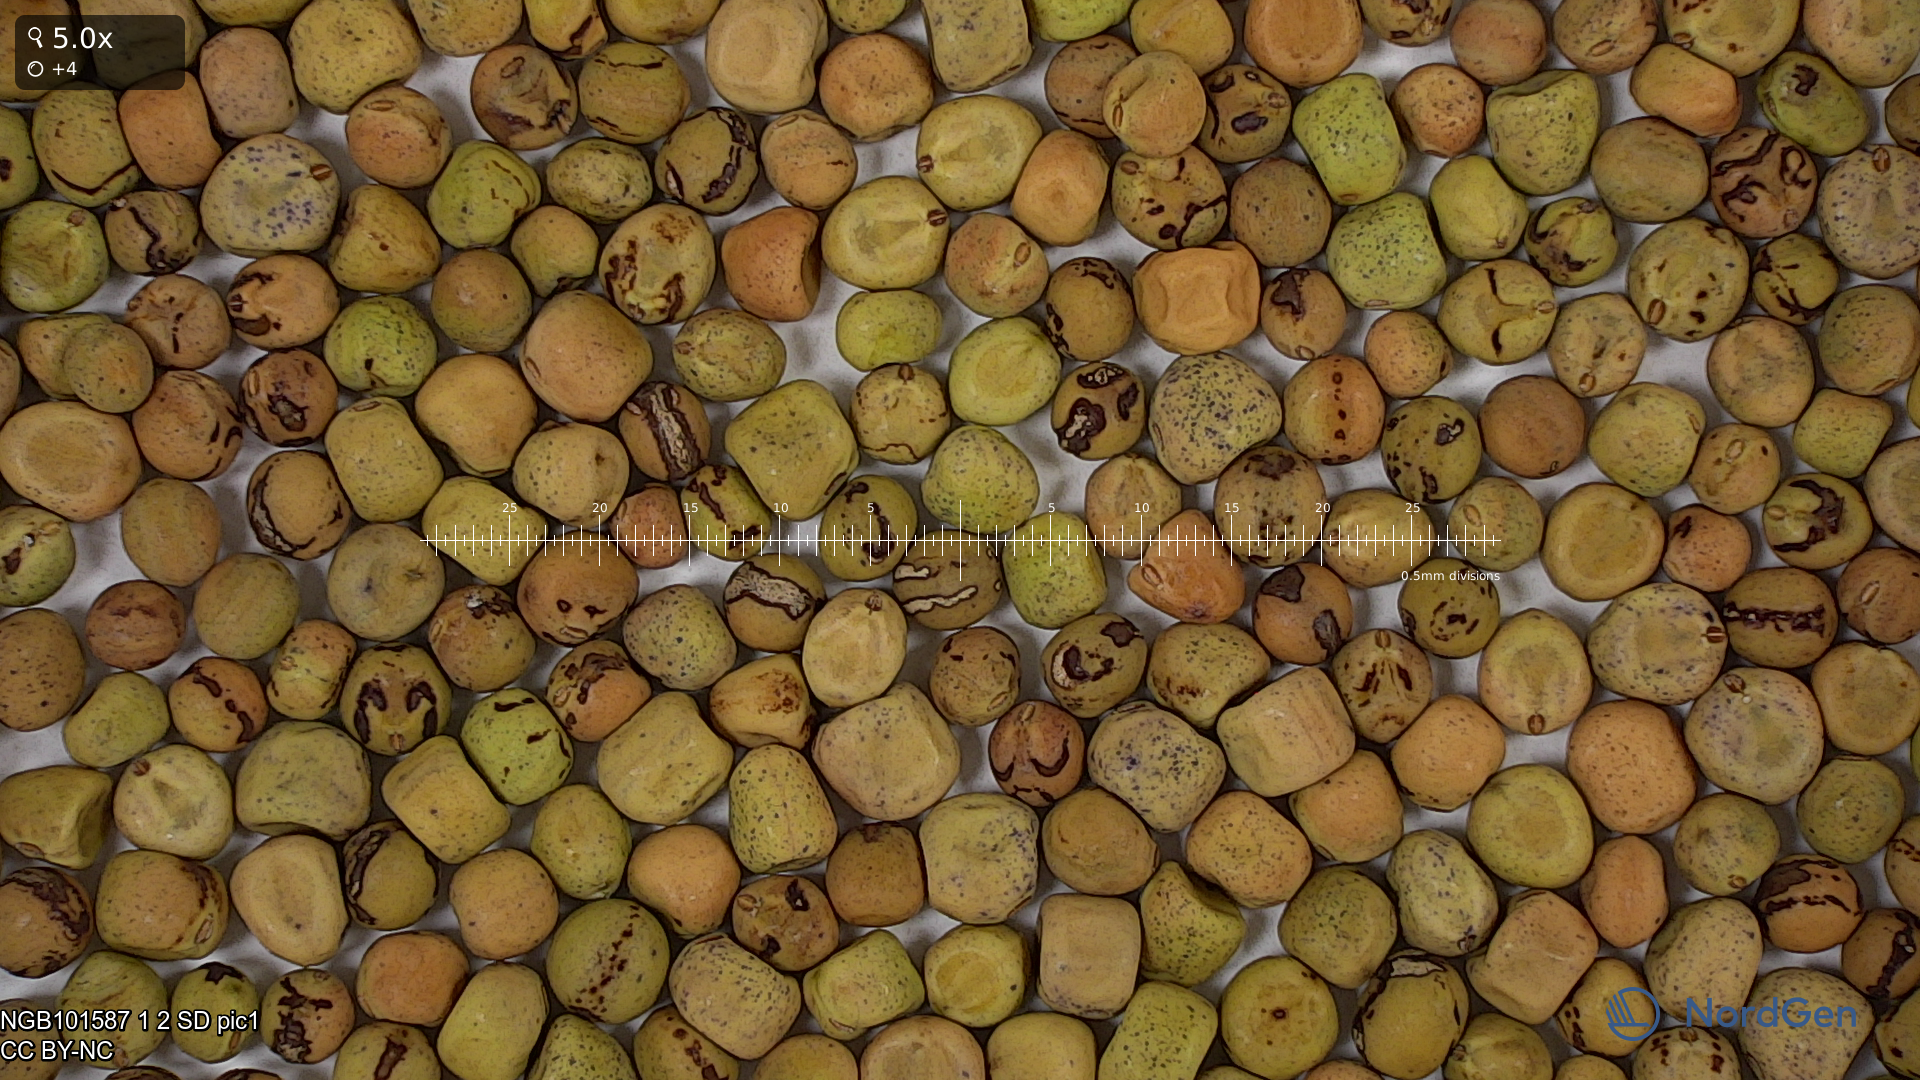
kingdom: Plantae
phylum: Tracheophyta
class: Magnoliopsida
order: Fabales
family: Fabaceae
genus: Lathyrus
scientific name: Lathyrus oleraceus
